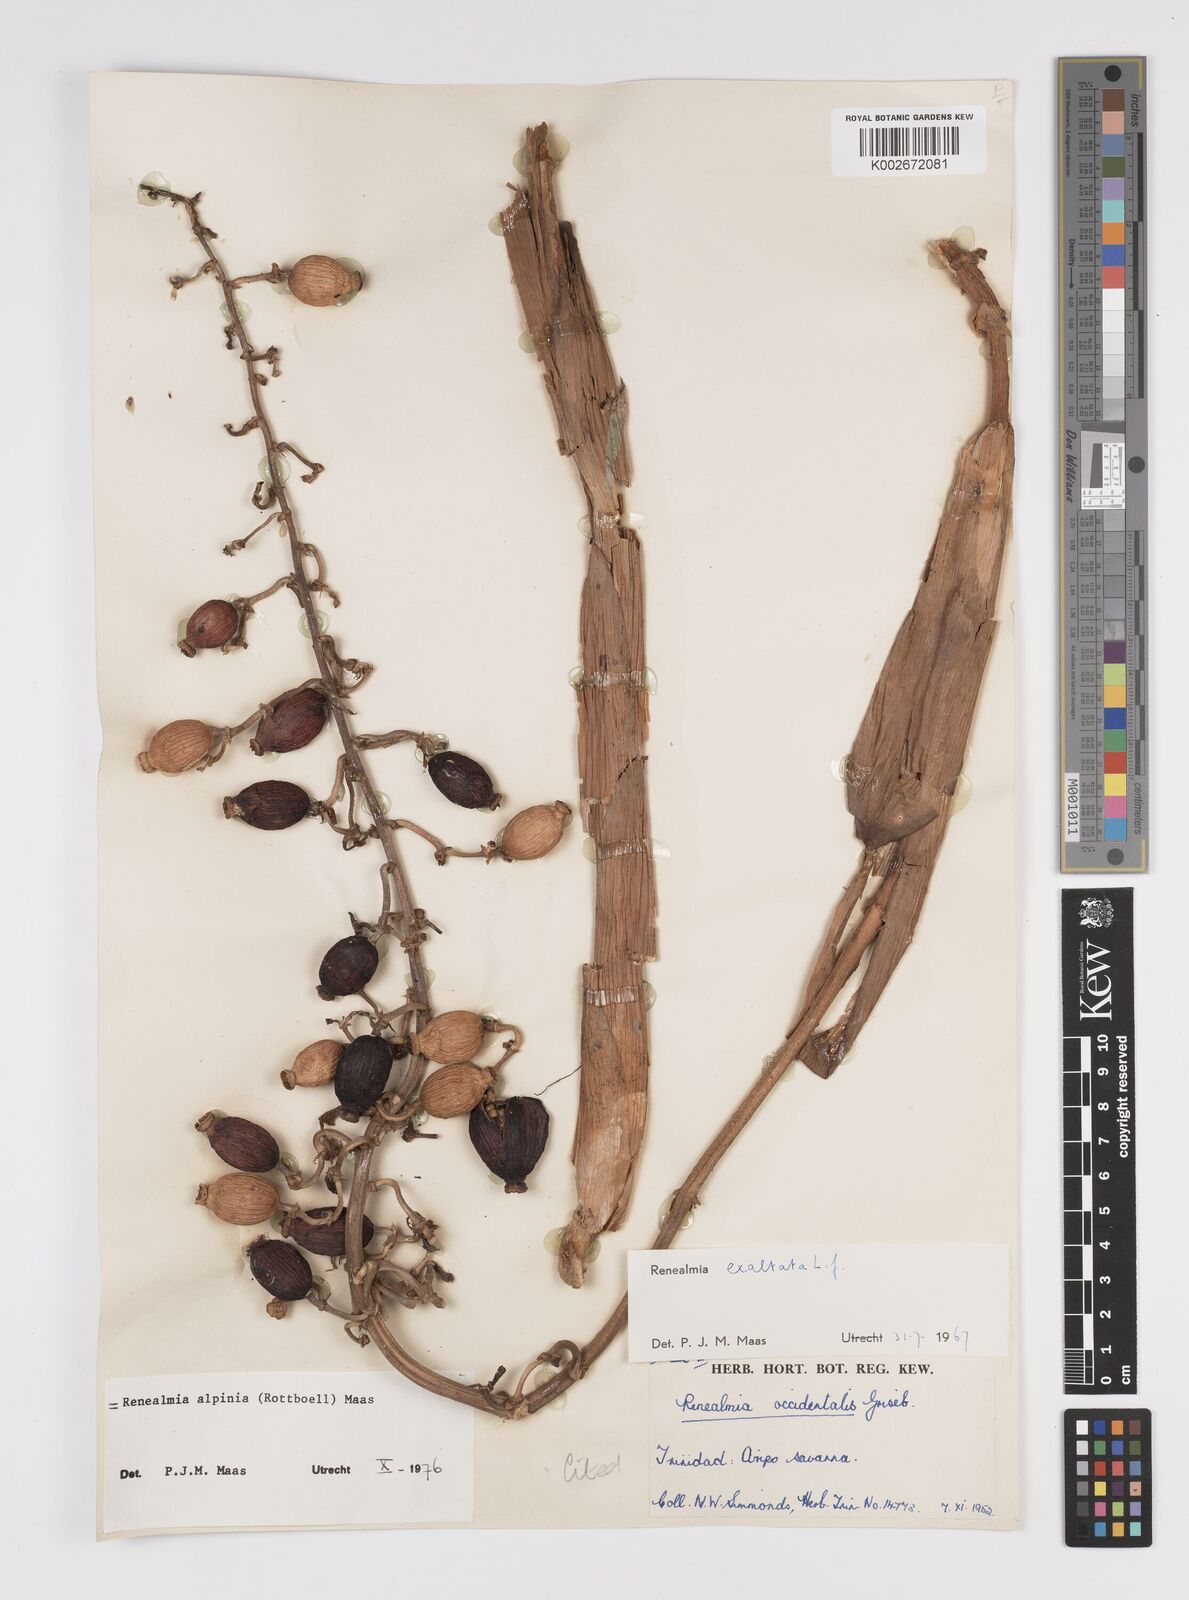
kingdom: Plantae
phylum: Tracheophyta
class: Liliopsida
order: Zingiberales
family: Zingiberaceae
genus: Renealmia
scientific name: Renealmia alpinia
